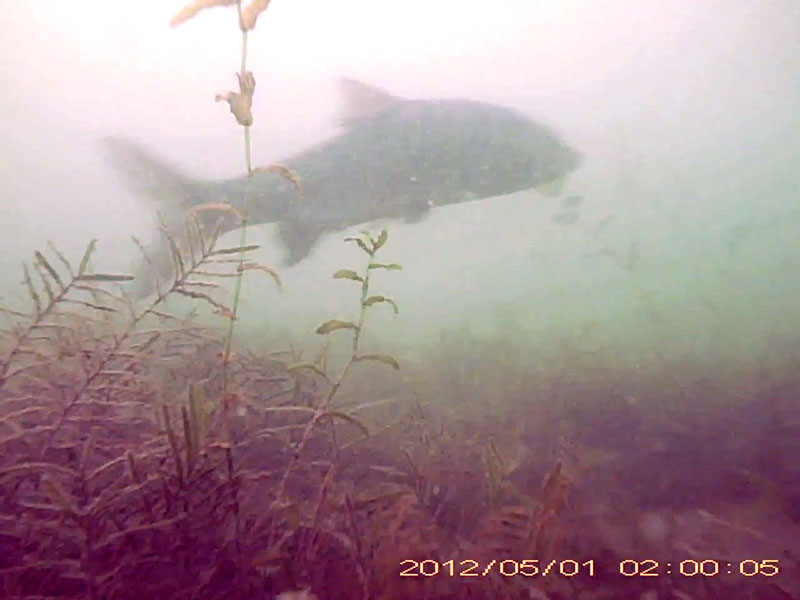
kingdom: Animalia
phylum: Chordata
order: Cypriniformes
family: Cyprinidae
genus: Hemibarbus
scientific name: Hemibarbus labeo
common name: ニゴイ
